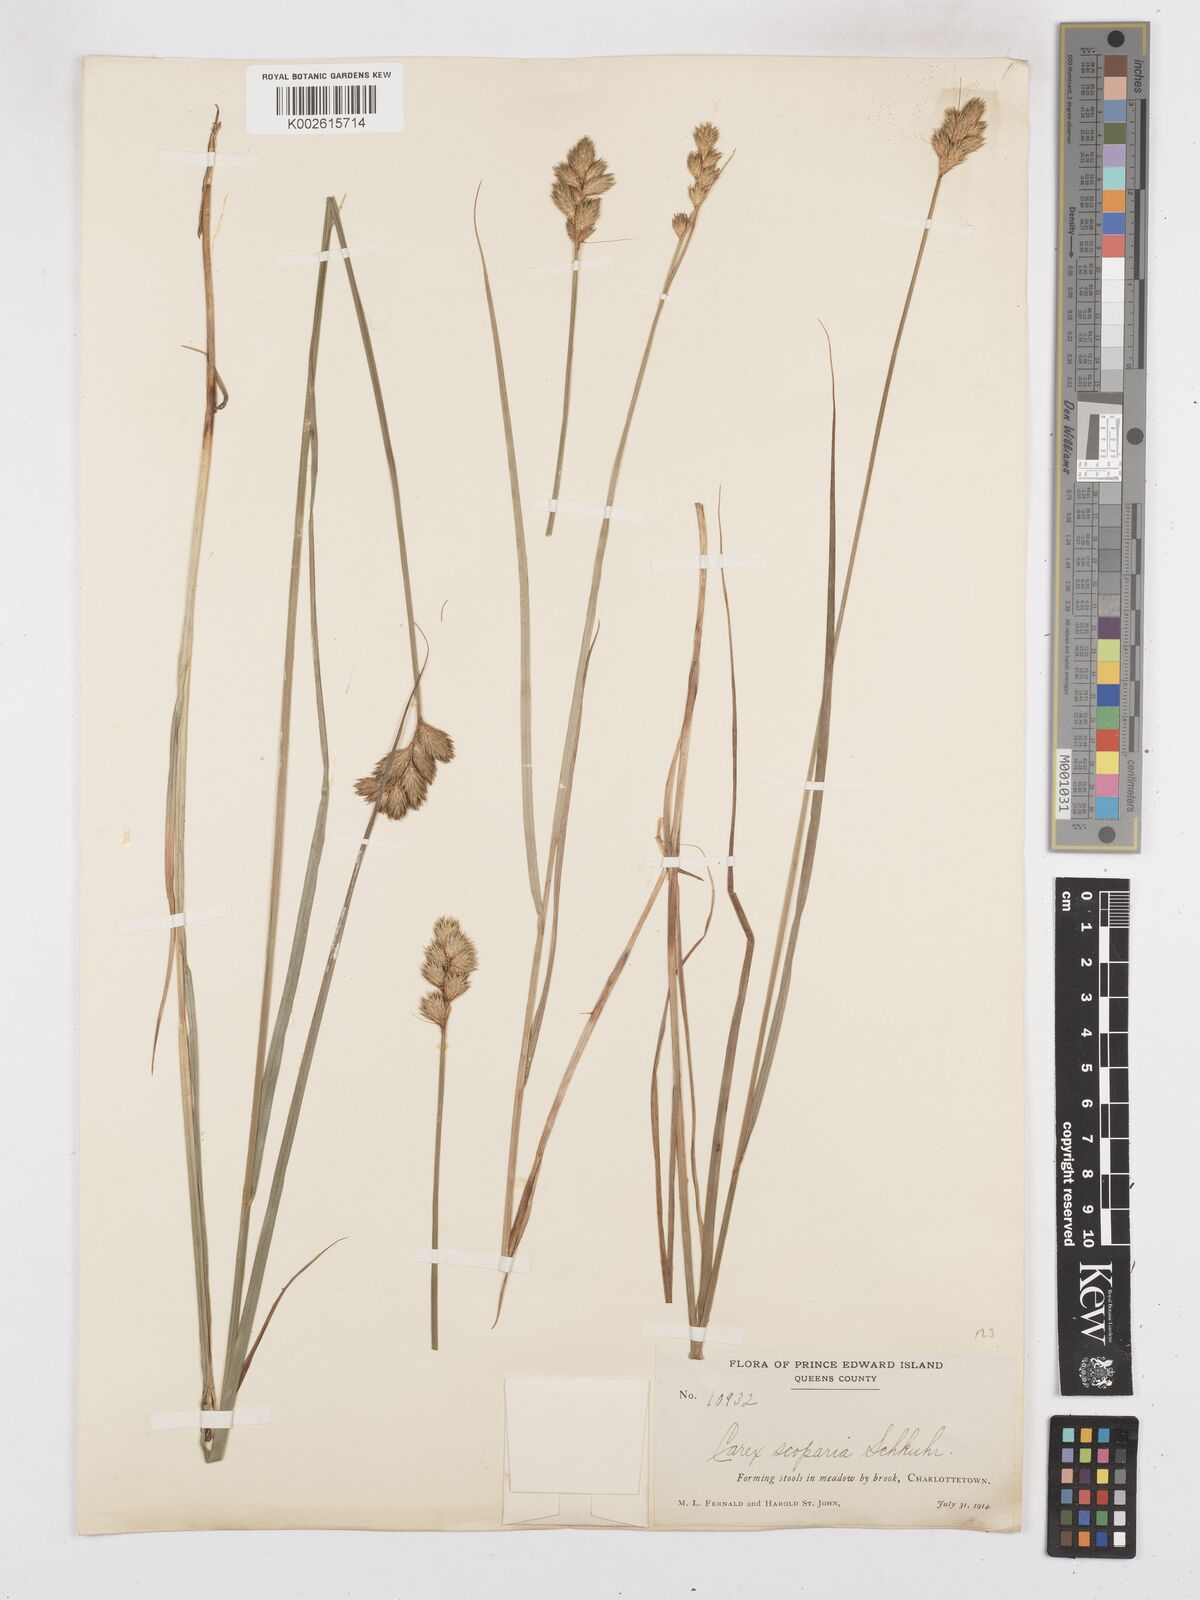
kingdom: Plantae
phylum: Tracheophyta
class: Liliopsida
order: Poales
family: Cyperaceae
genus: Carex
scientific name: Carex leporina
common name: Oval sedge
